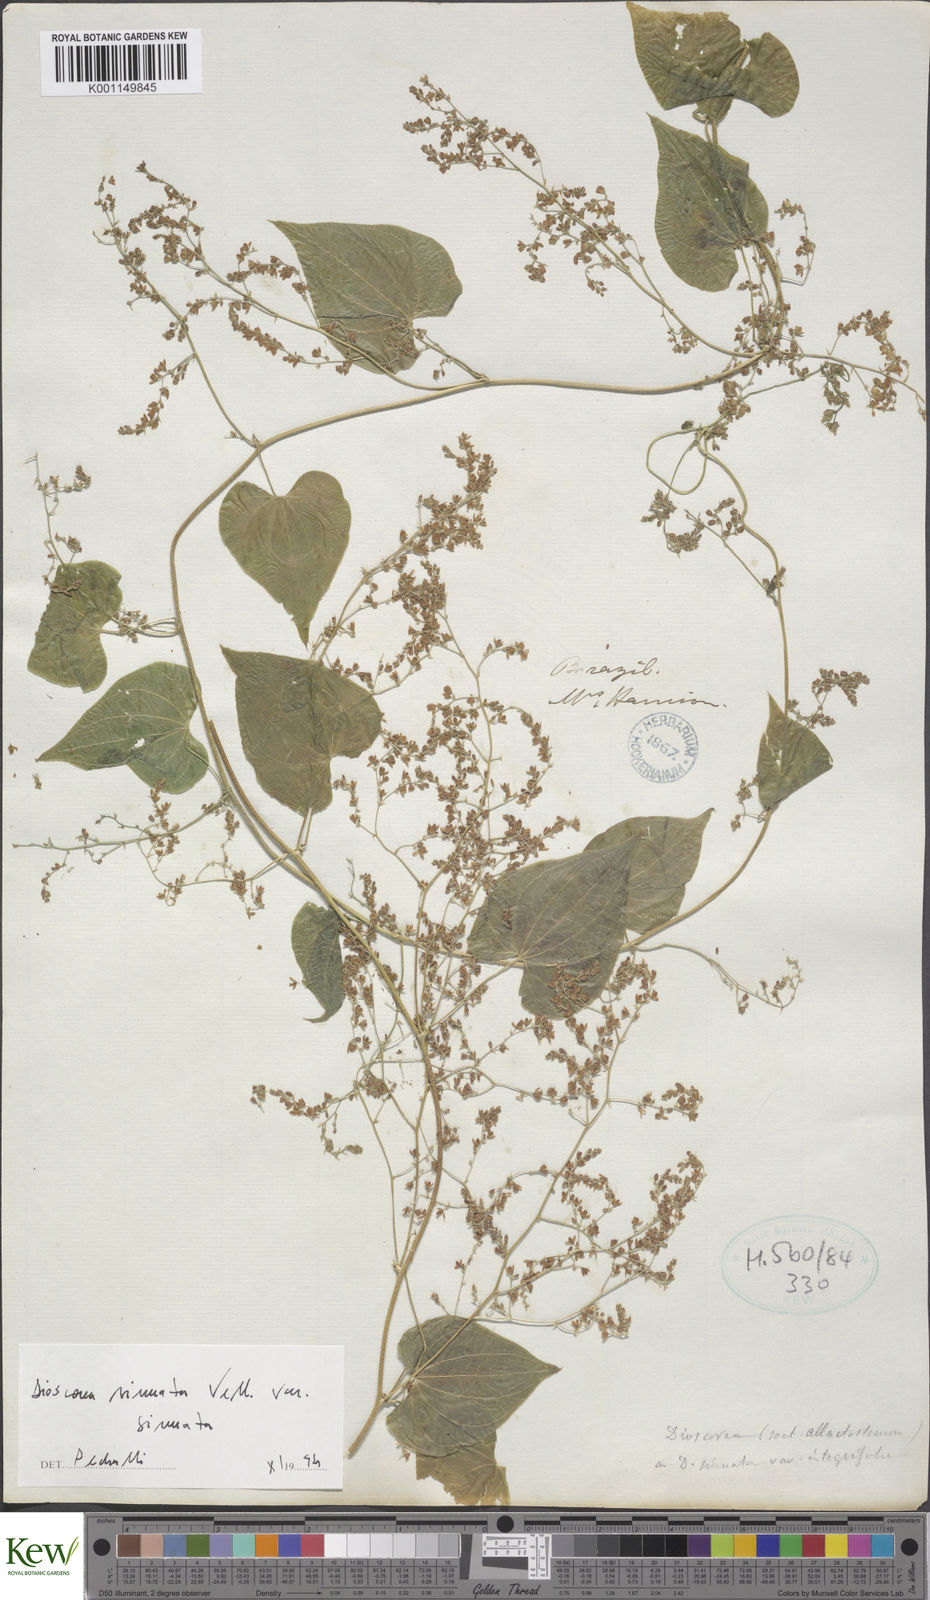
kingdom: Plantae
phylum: Tracheophyta
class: Liliopsida
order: Dioscoreales
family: Dioscoreaceae
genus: Dioscorea
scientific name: Dioscorea sinuata
